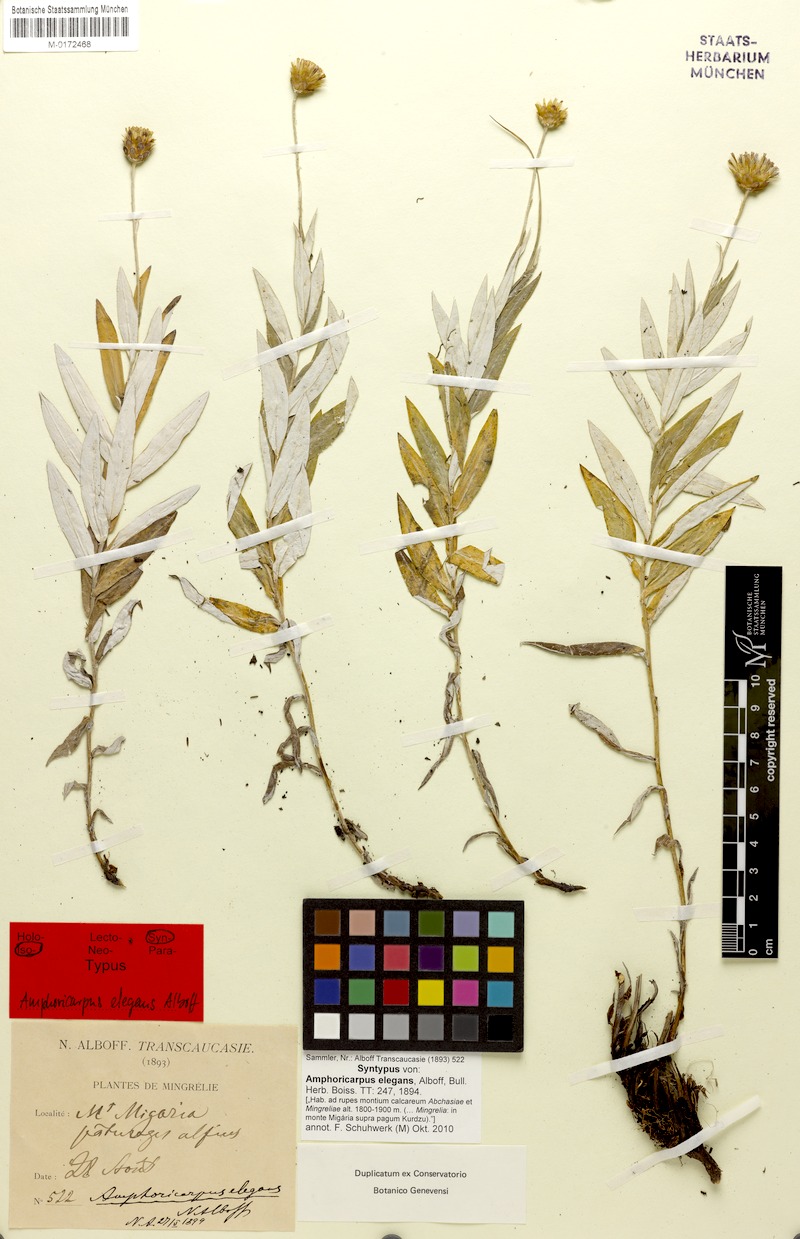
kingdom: Plantae
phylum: Tracheophyta
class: Magnoliopsida
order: Asterales
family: Asteraceae
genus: Amphoricarpos
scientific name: Amphoricarpos elegans
